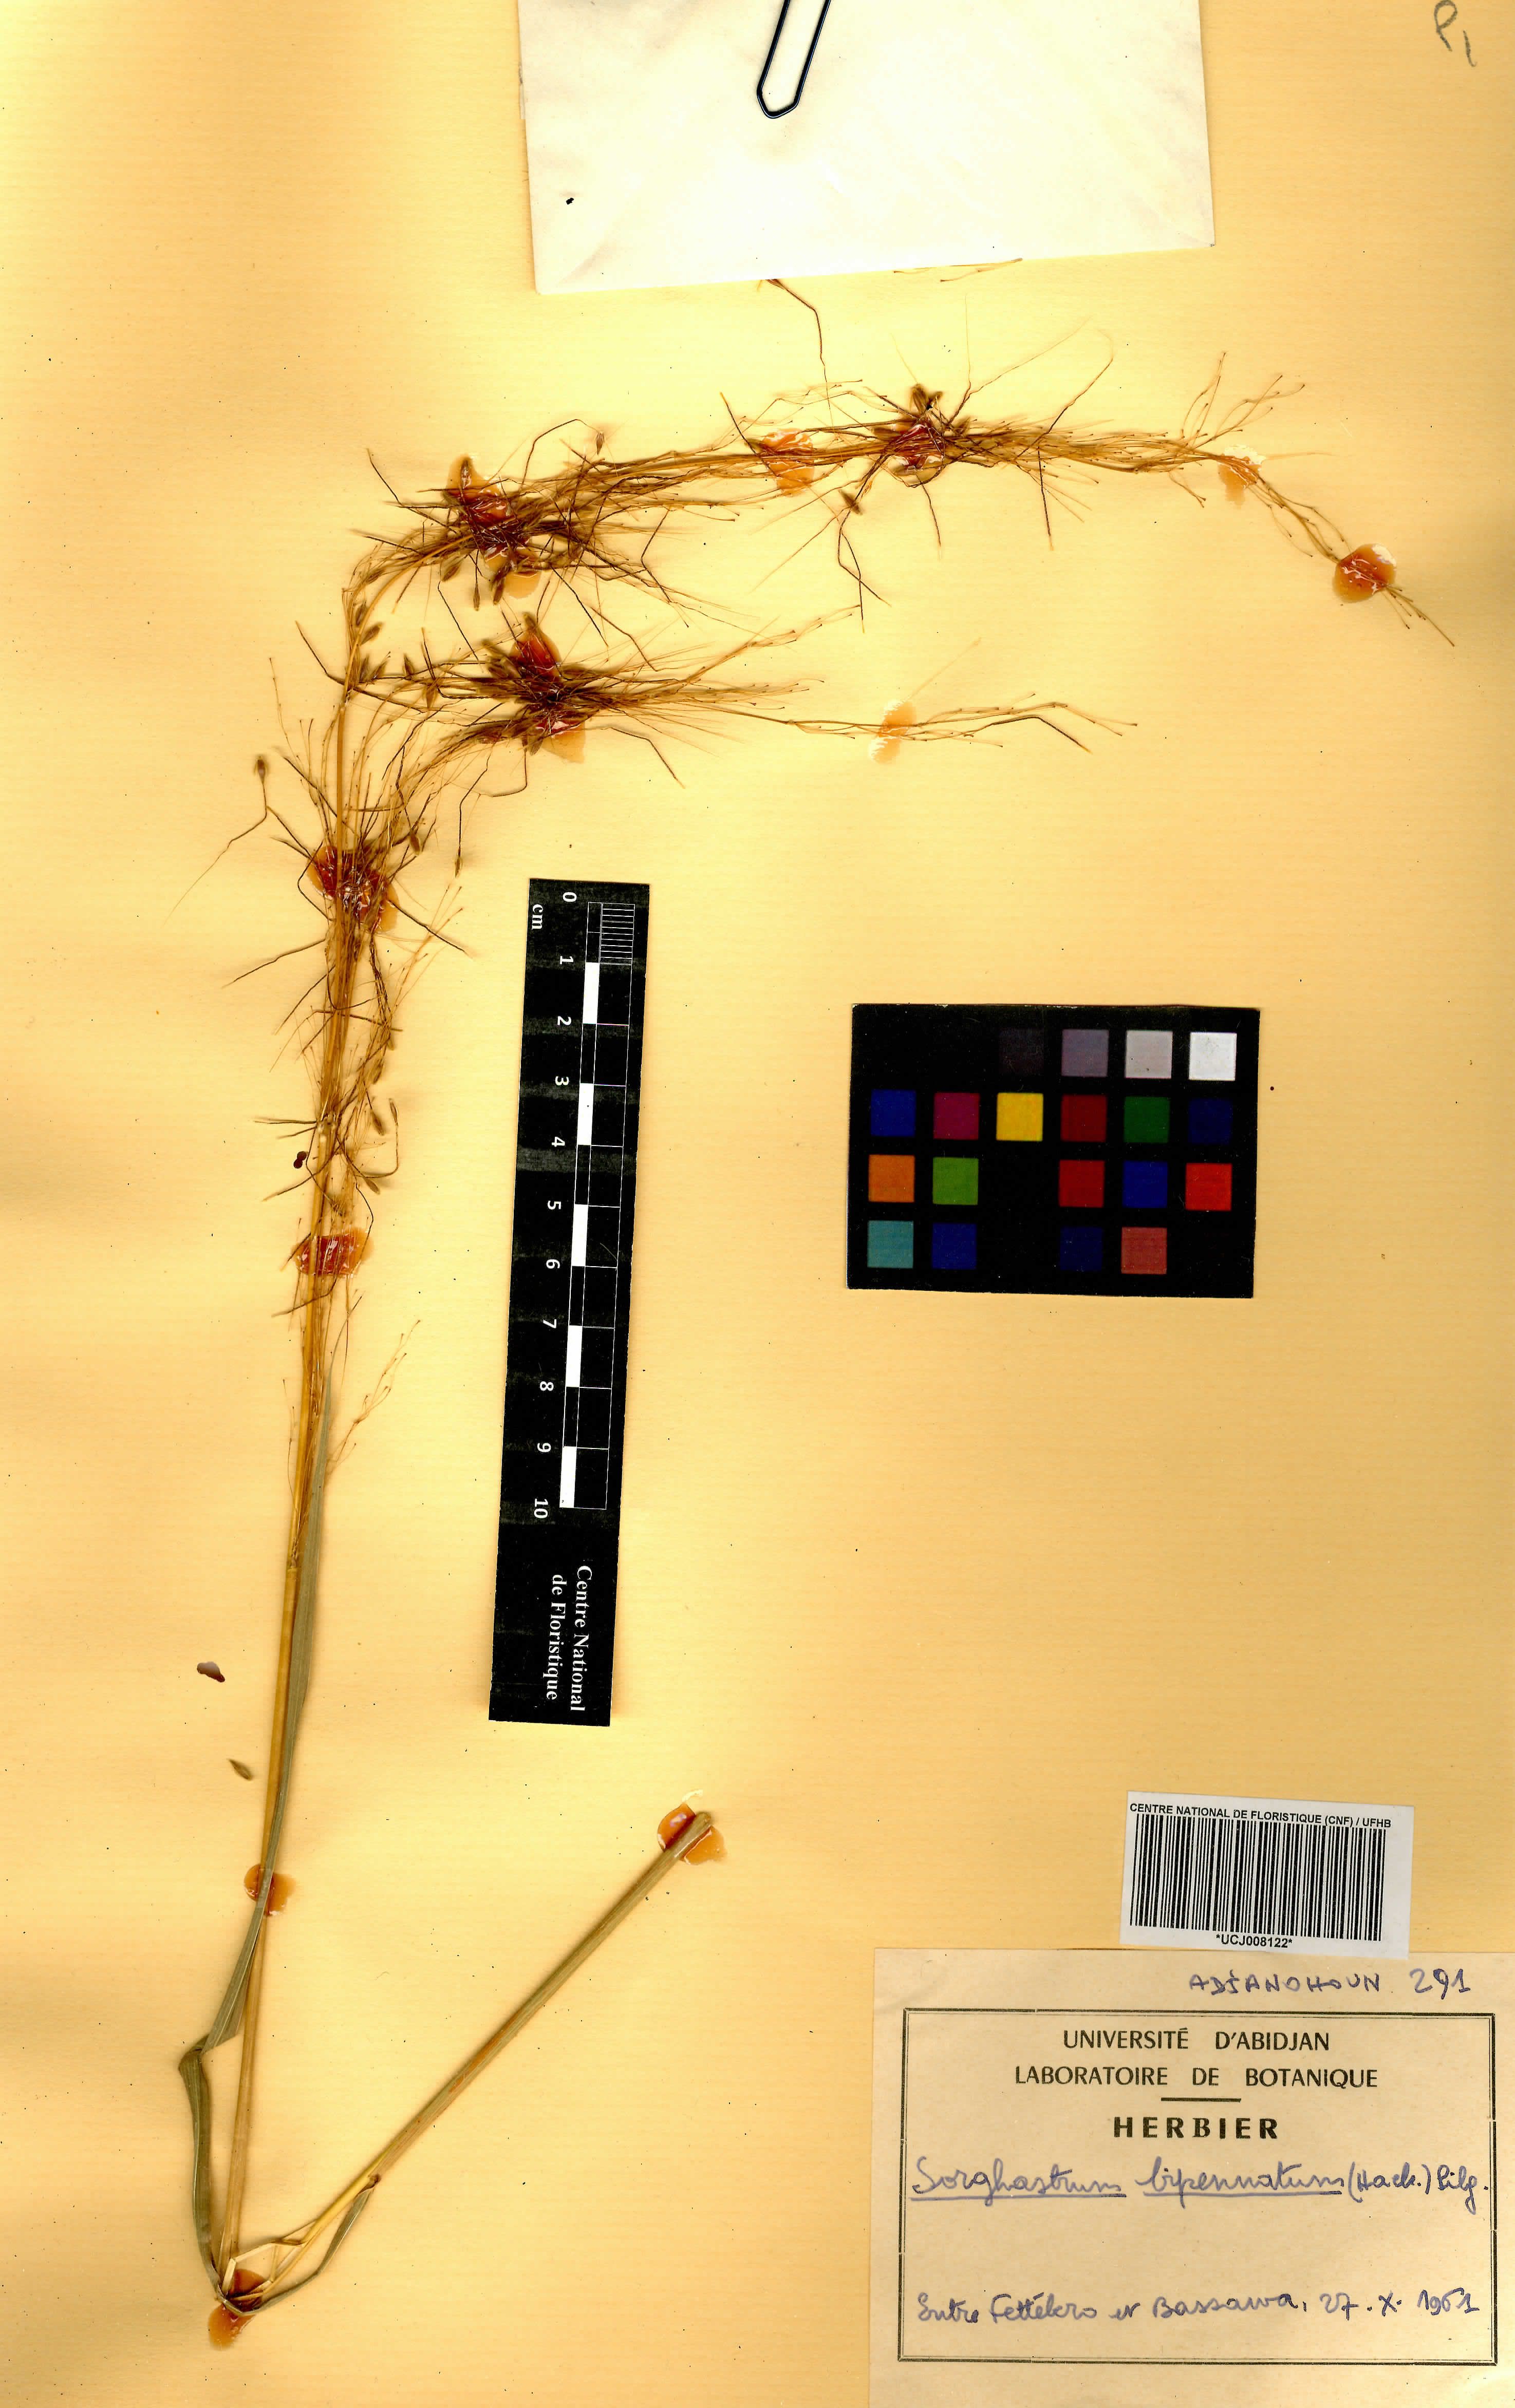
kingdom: Plantae
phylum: Tracheophyta
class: Liliopsida
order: Poales
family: Poaceae
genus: Sorghastrum
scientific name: Sorghastrum incompletum
